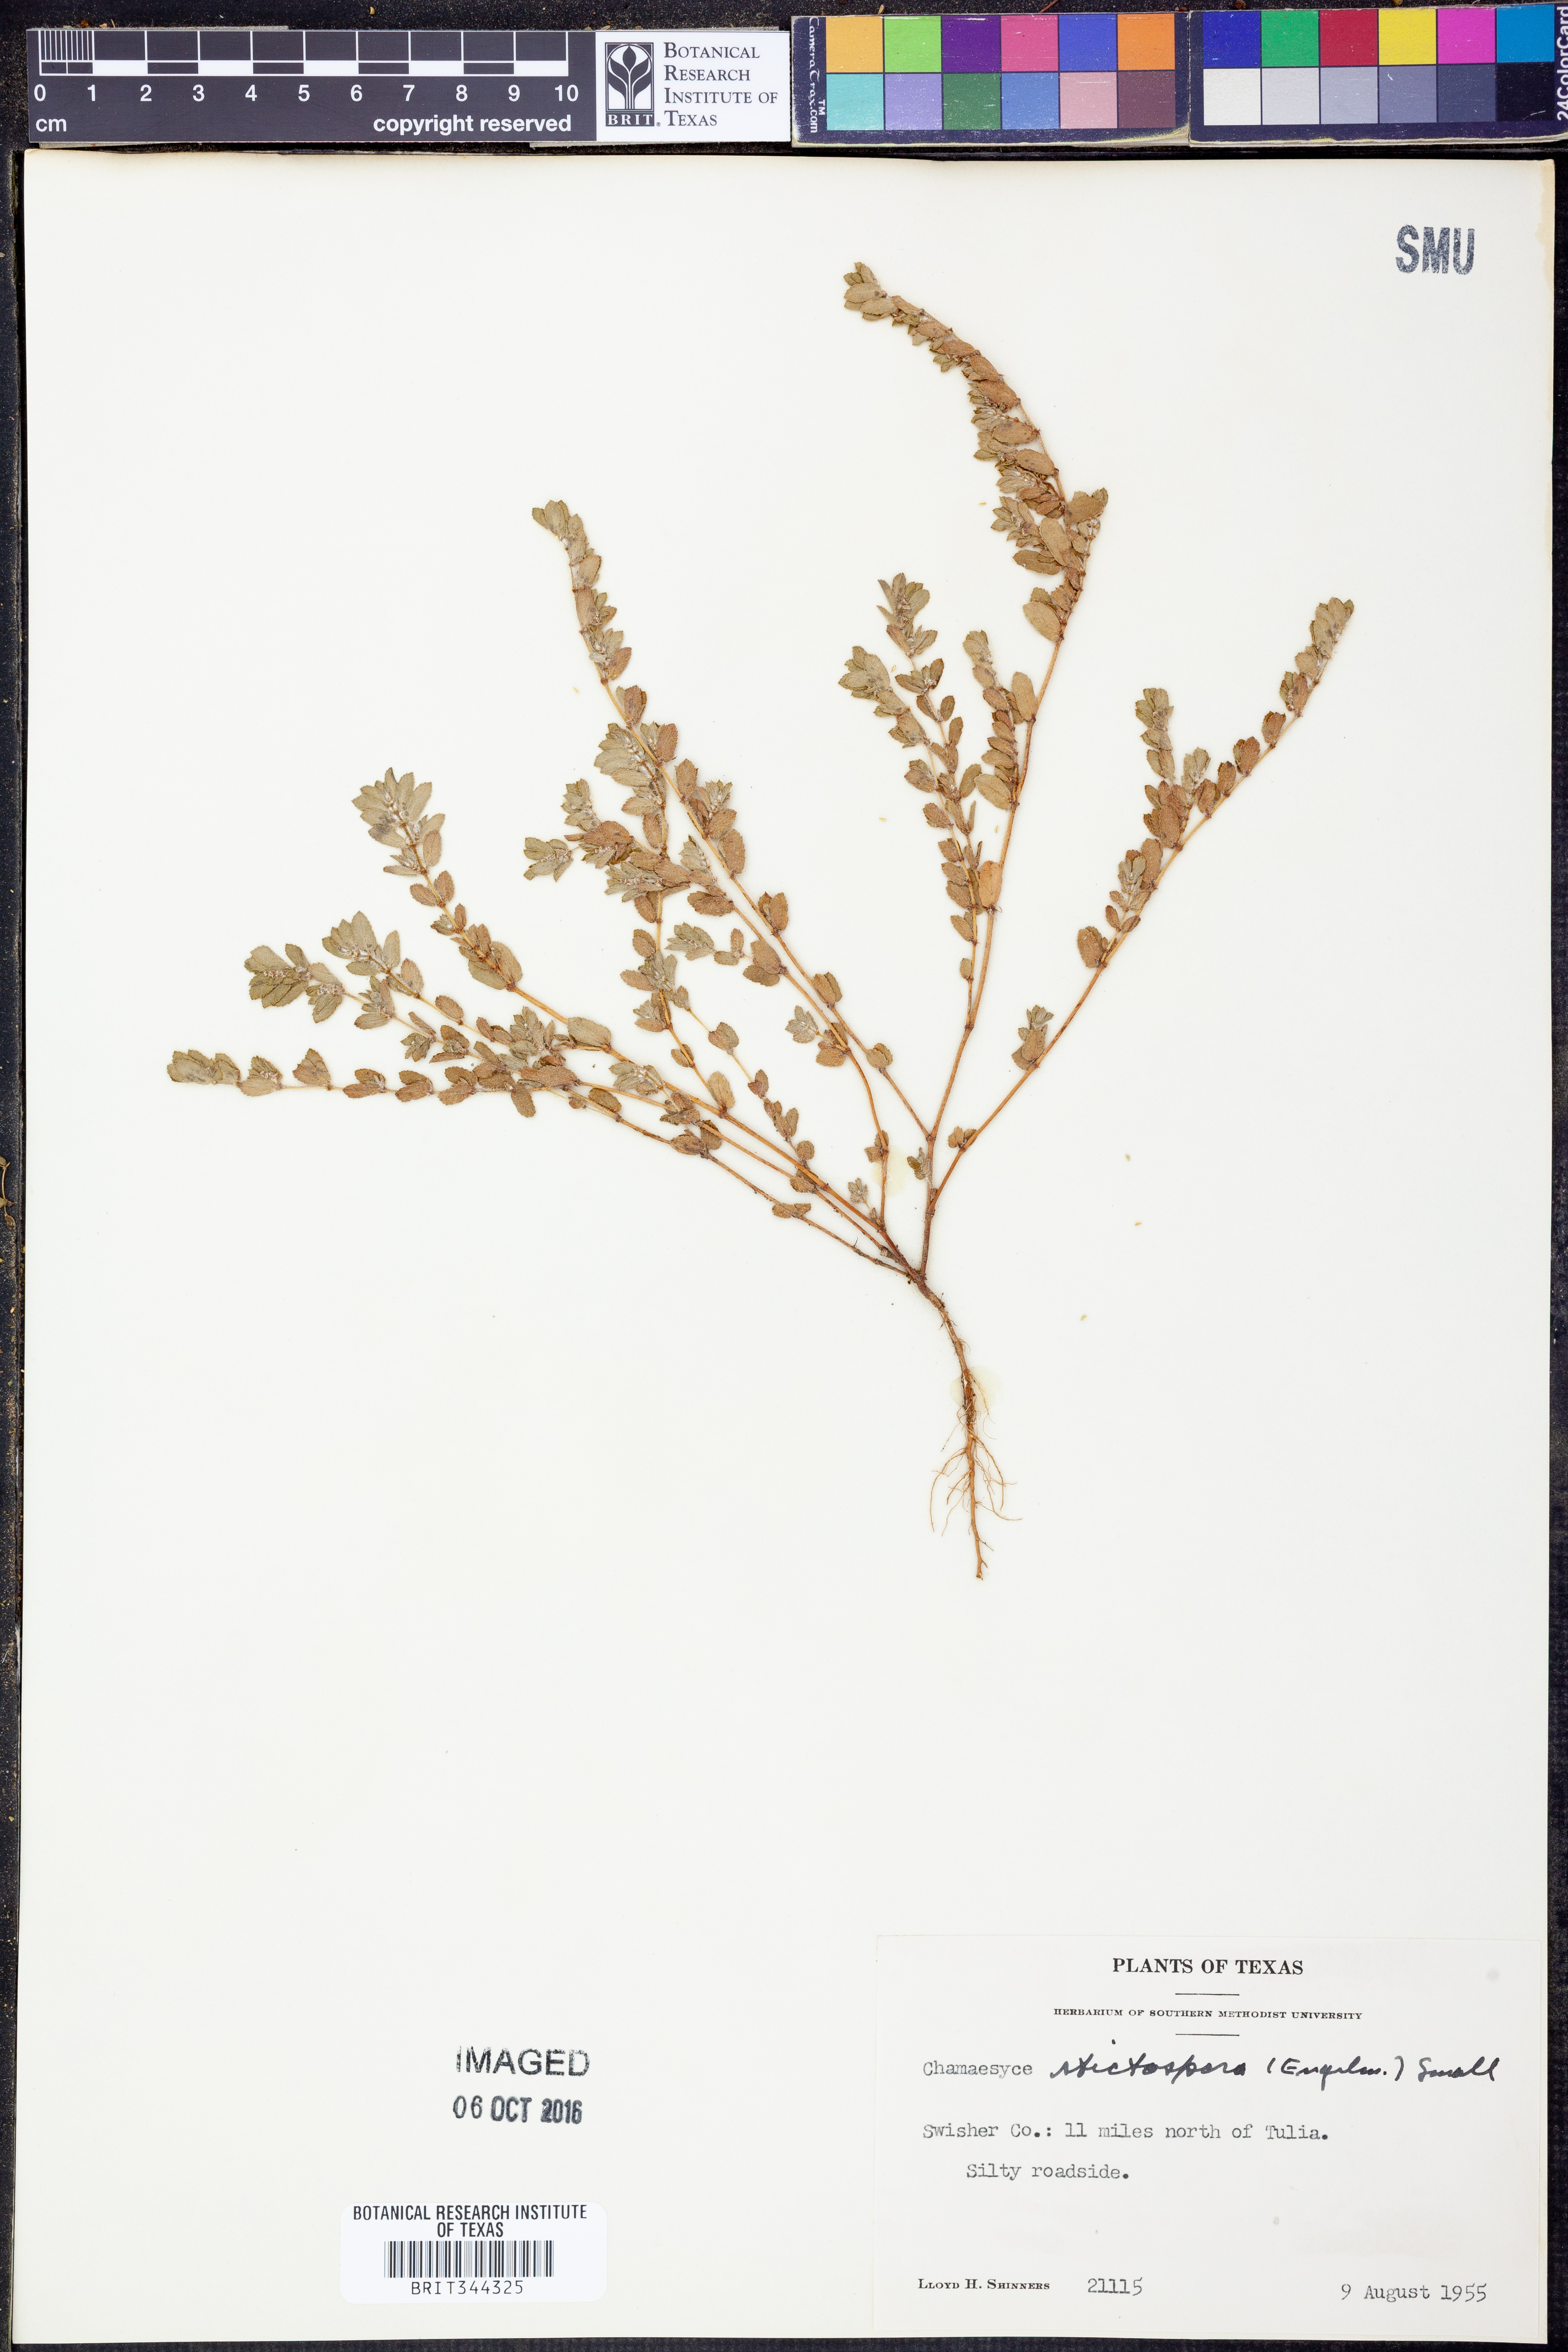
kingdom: Plantae
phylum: Tracheophyta
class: Magnoliopsida
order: Malpighiales
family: Euphorbiaceae
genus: Euphorbia
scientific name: Euphorbia stictospora
